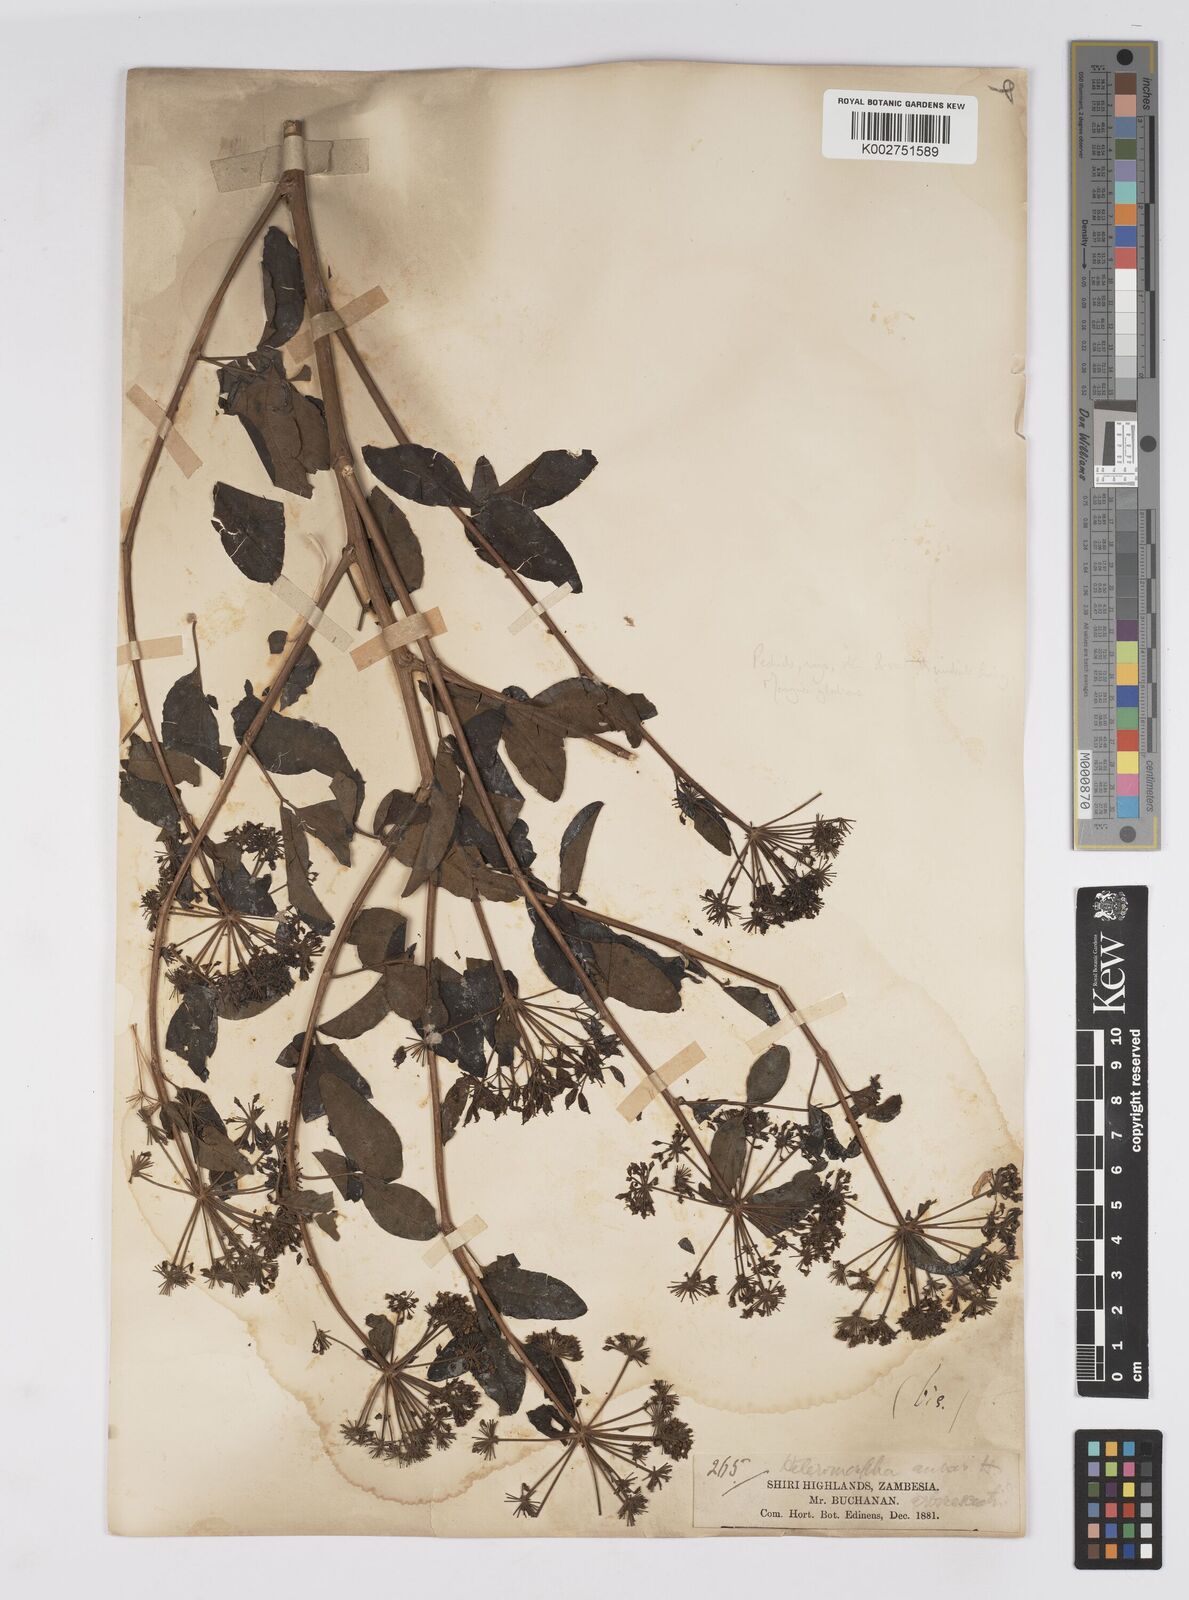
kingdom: Plantae
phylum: Tracheophyta
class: Magnoliopsida
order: Apiales
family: Apiaceae
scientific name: Apiaceae
